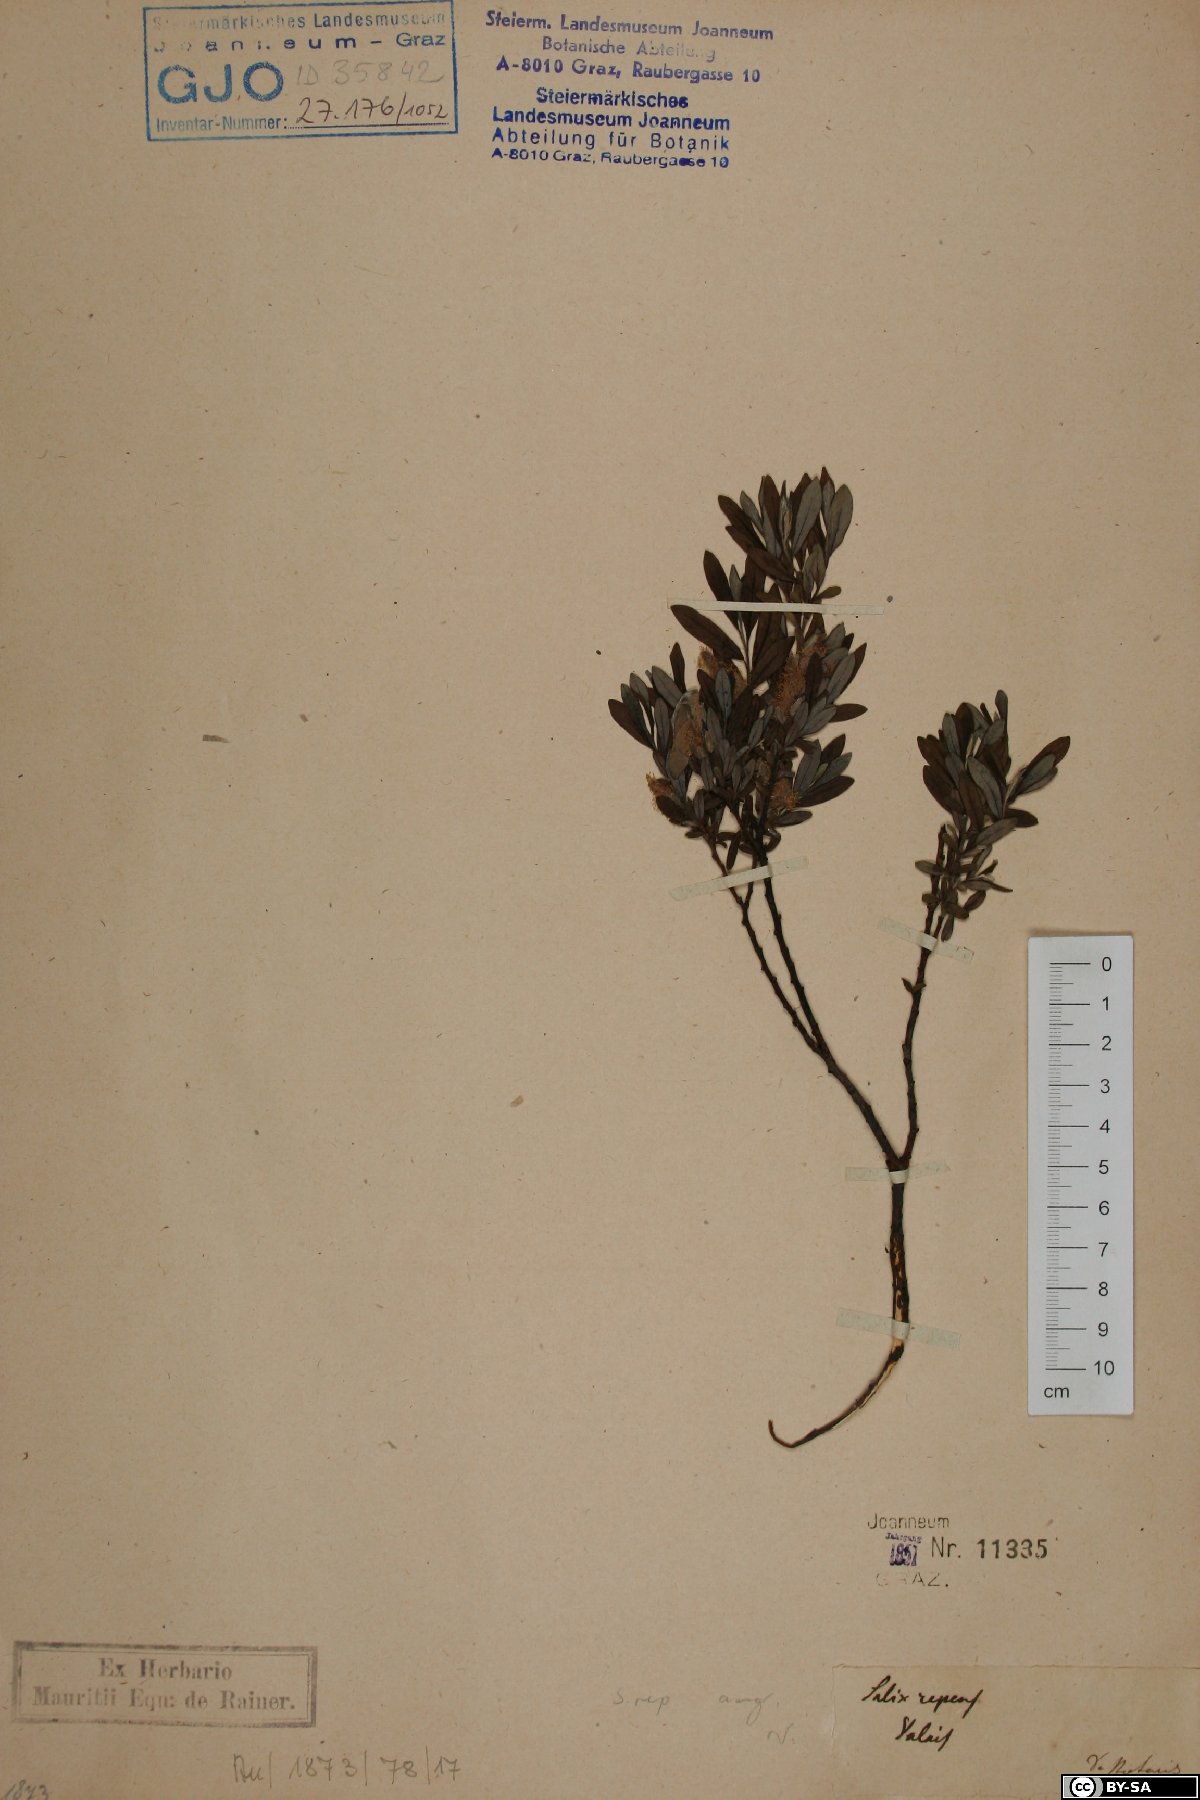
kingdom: Plantae
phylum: Tracheophyta
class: Magnoliopsida
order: Malpighiales
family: Salicaceae
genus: Salix
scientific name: Salix rosmarinifolia
